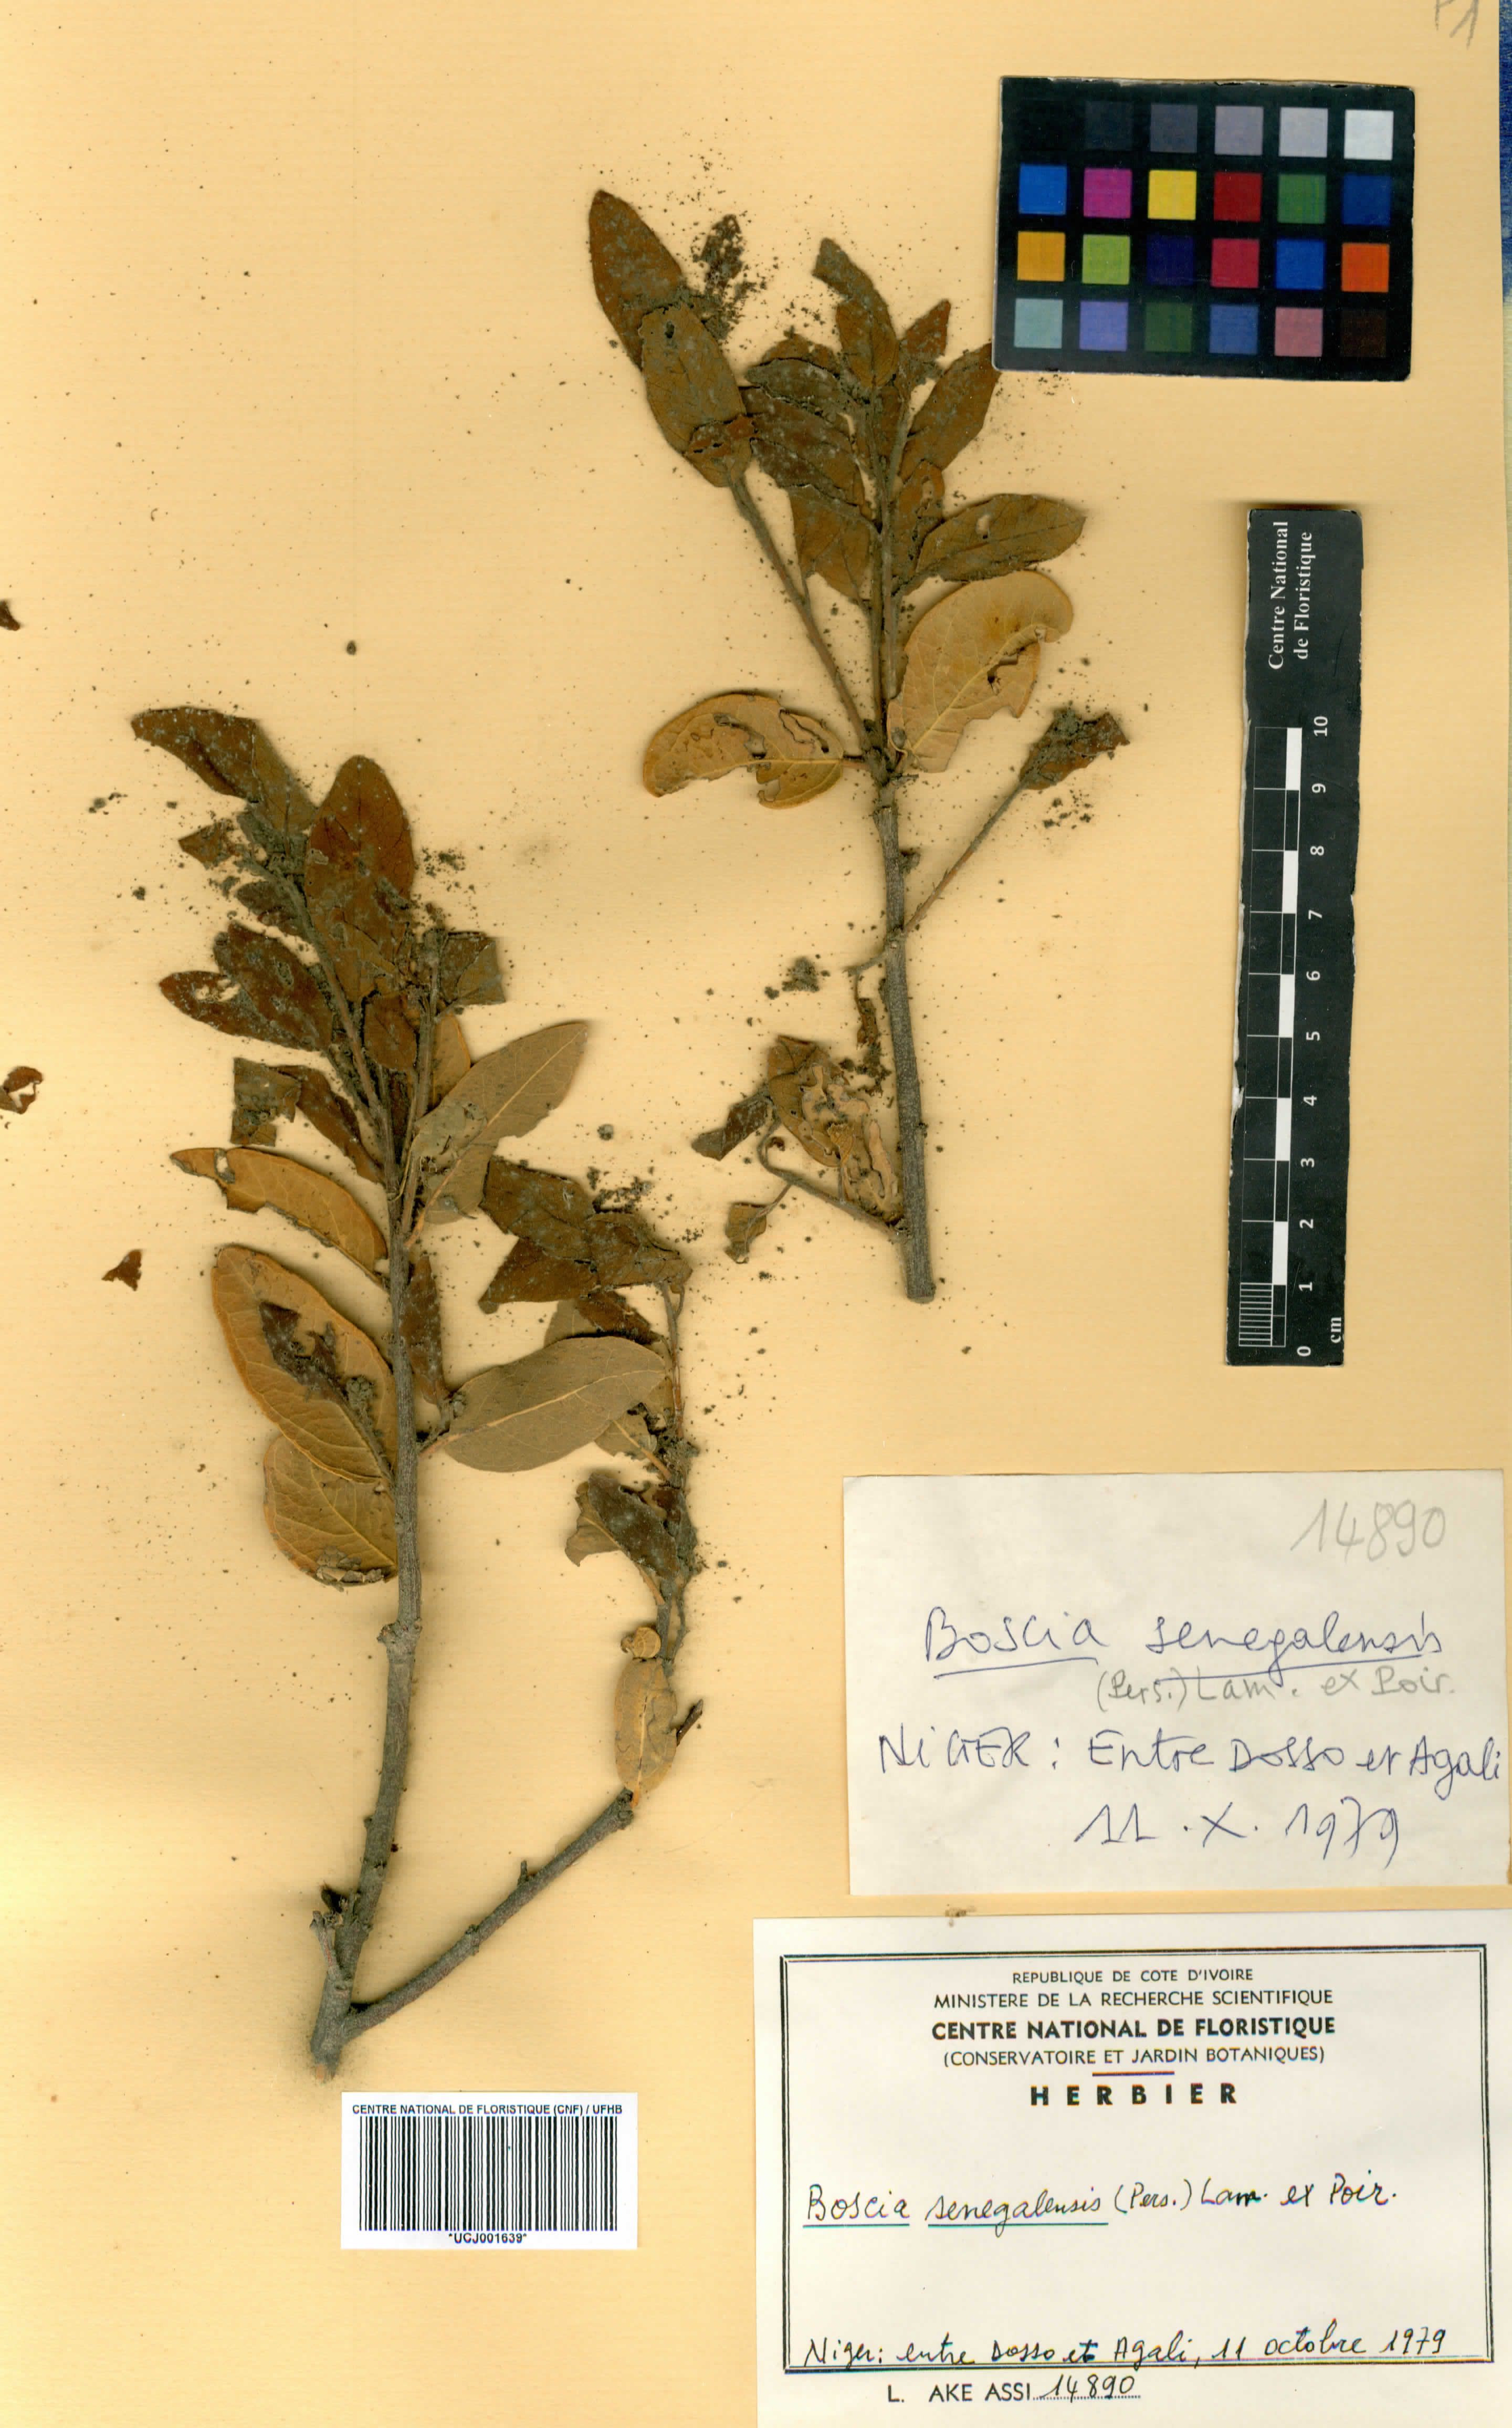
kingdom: Plantae
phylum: Tracheophyta
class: Magnoliopsida
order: Brassicales
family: Capparaceae
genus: Boscia
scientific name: Boscia senegalensis
